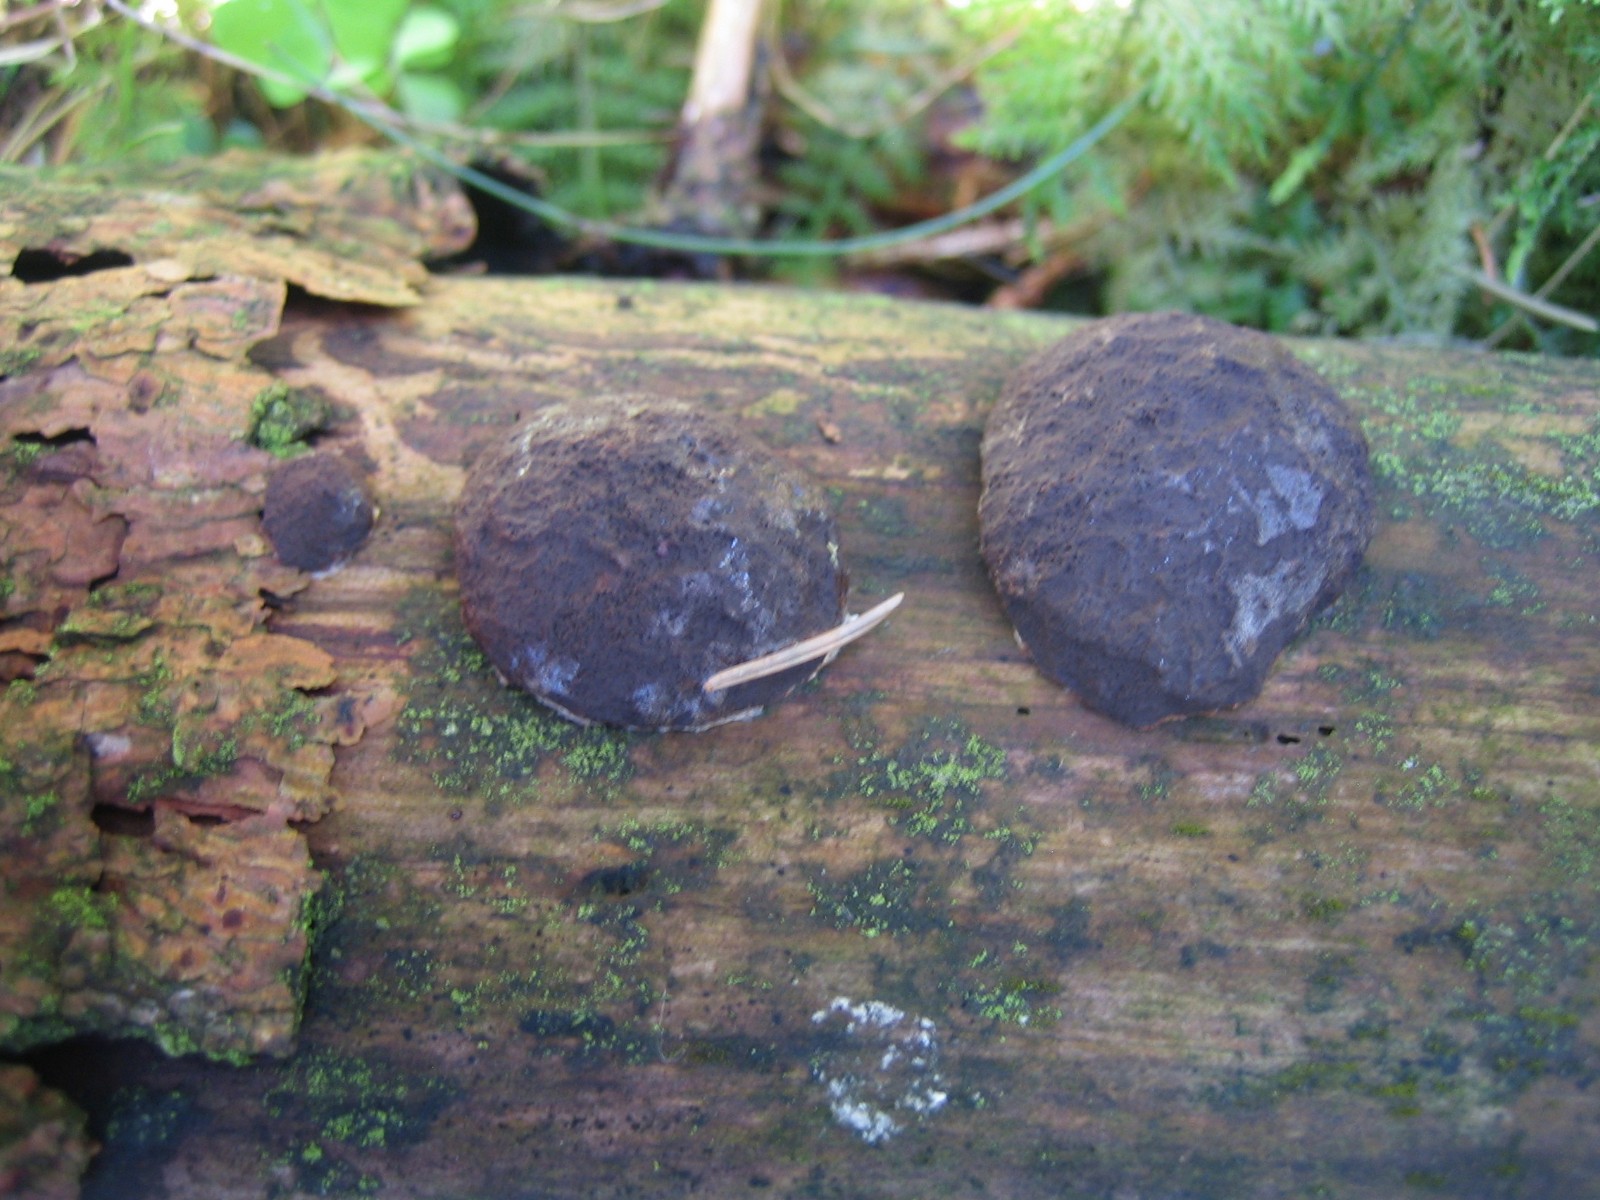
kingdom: Protozoa
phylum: Mycetozoa
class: Myxomycetes
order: Cribrariales
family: Tubiferaceae
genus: Reticularia
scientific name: Reticularia lycoperdon
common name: skinnende støvpude
